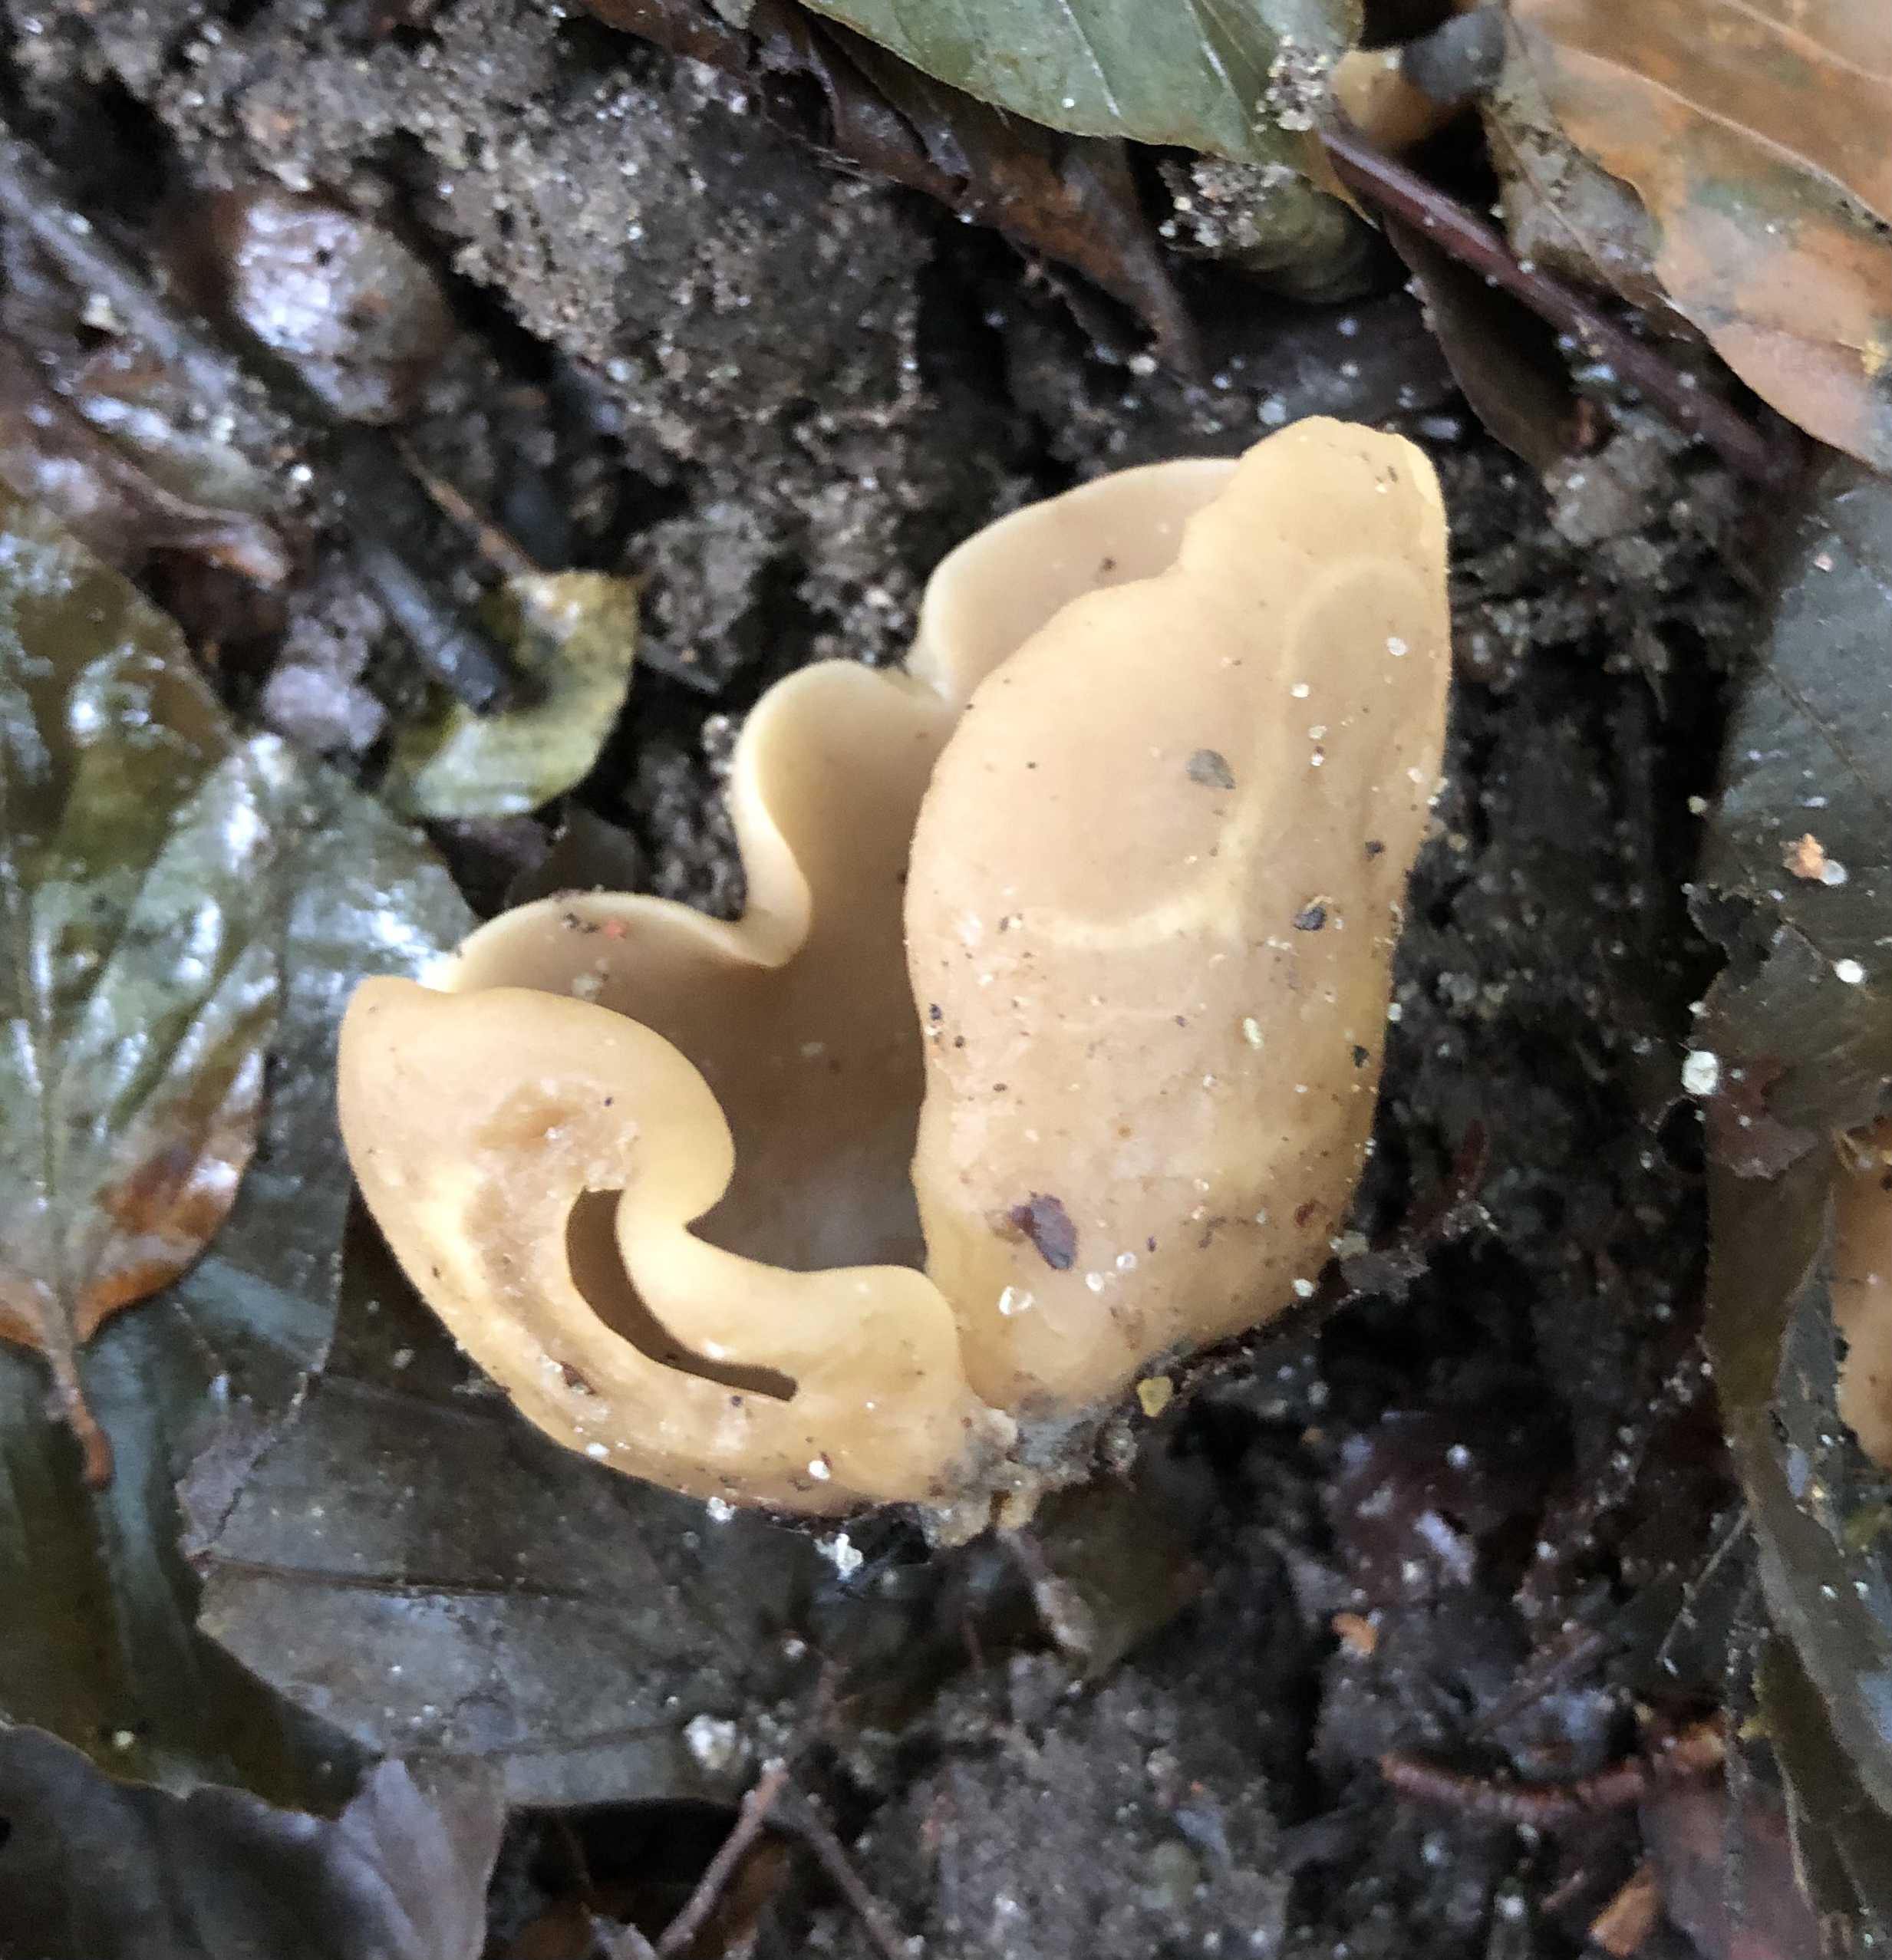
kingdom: Fungi
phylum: Ascomycota
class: Pezizomycetes
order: Pezizales
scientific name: Pezizales
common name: bægersvampordenen
